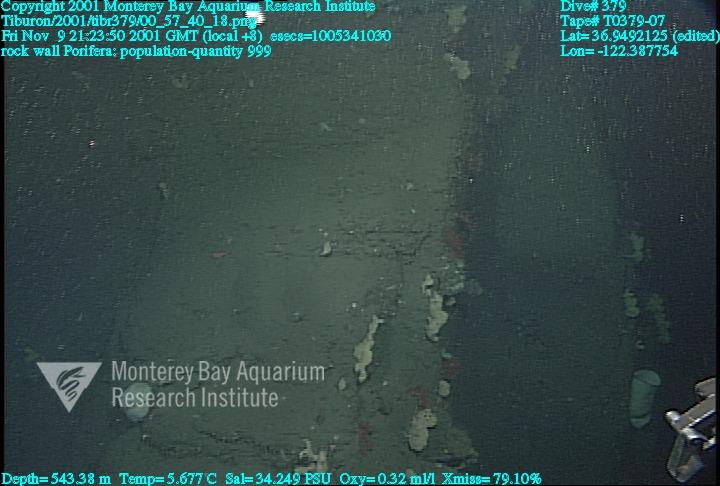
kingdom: Animalia
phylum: Porifera
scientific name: Porifera
